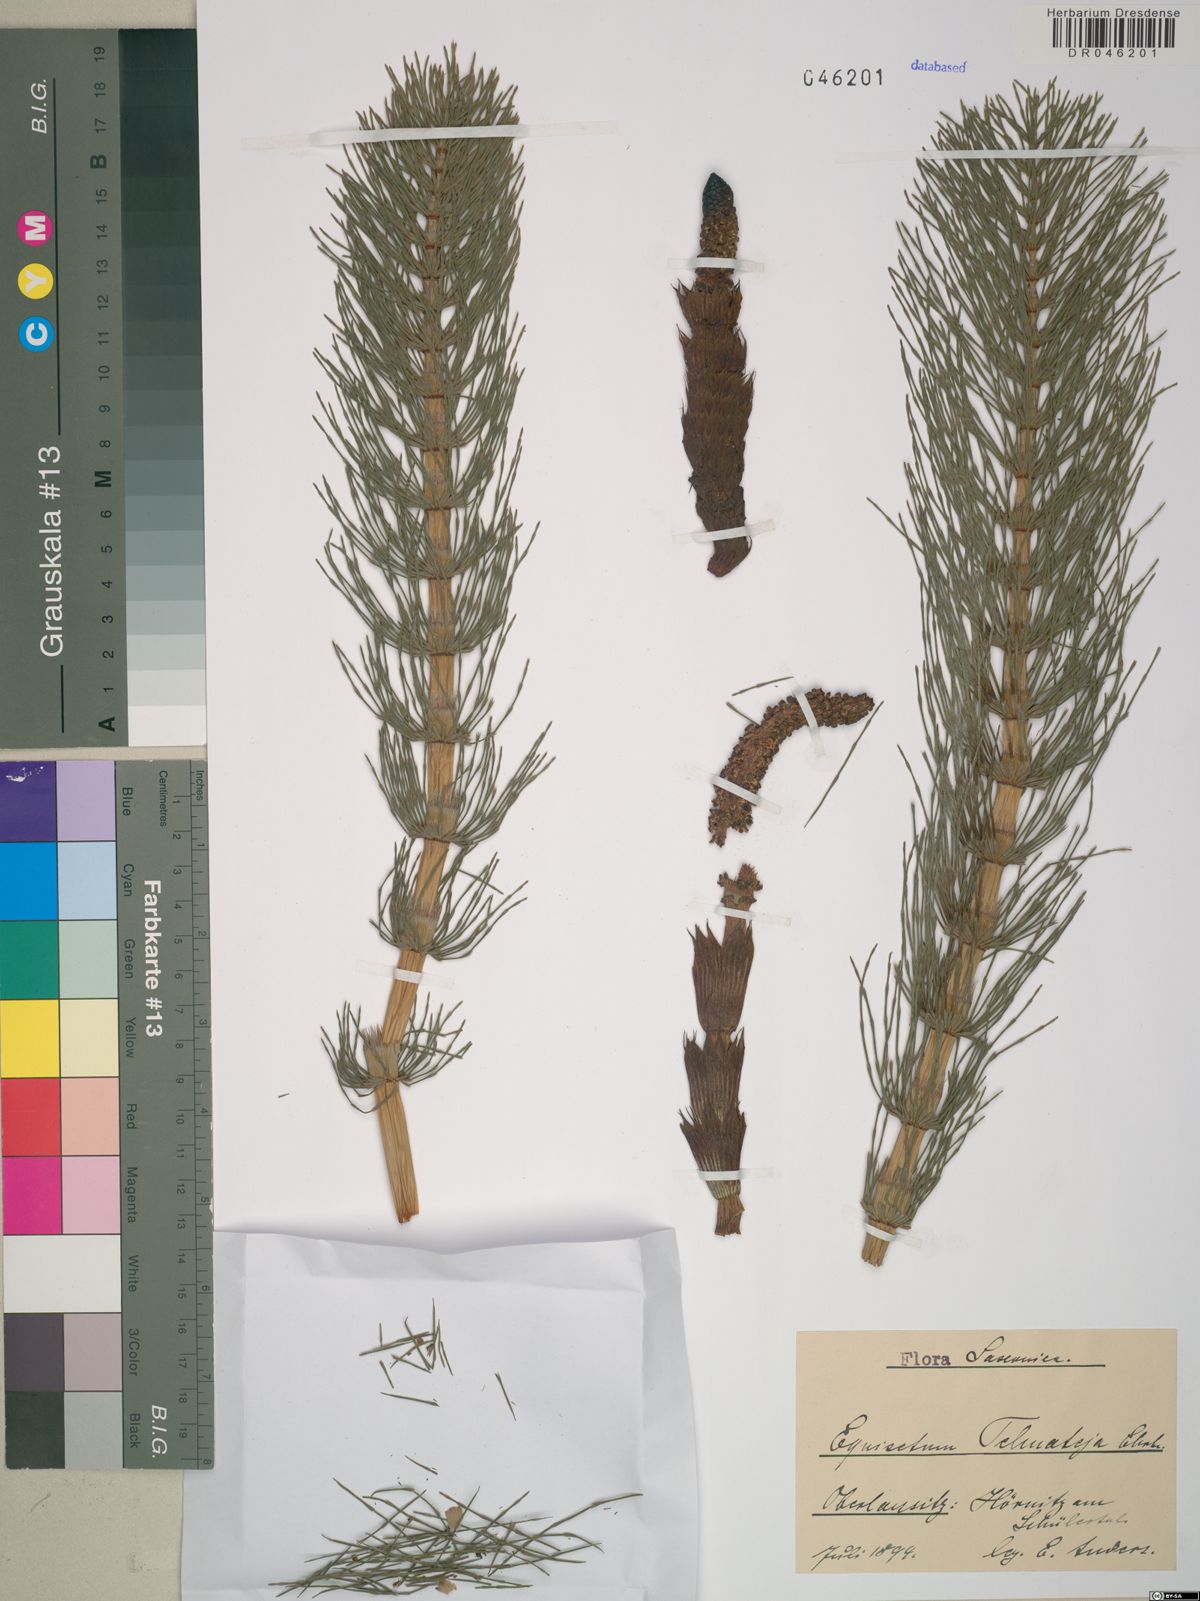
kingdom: Plantae
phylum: Tracheophyta
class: Polypodiopsida
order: Equisetales
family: Equisetaceae
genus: Equisetum
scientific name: Equisetum telmateia
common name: Great horsetail
